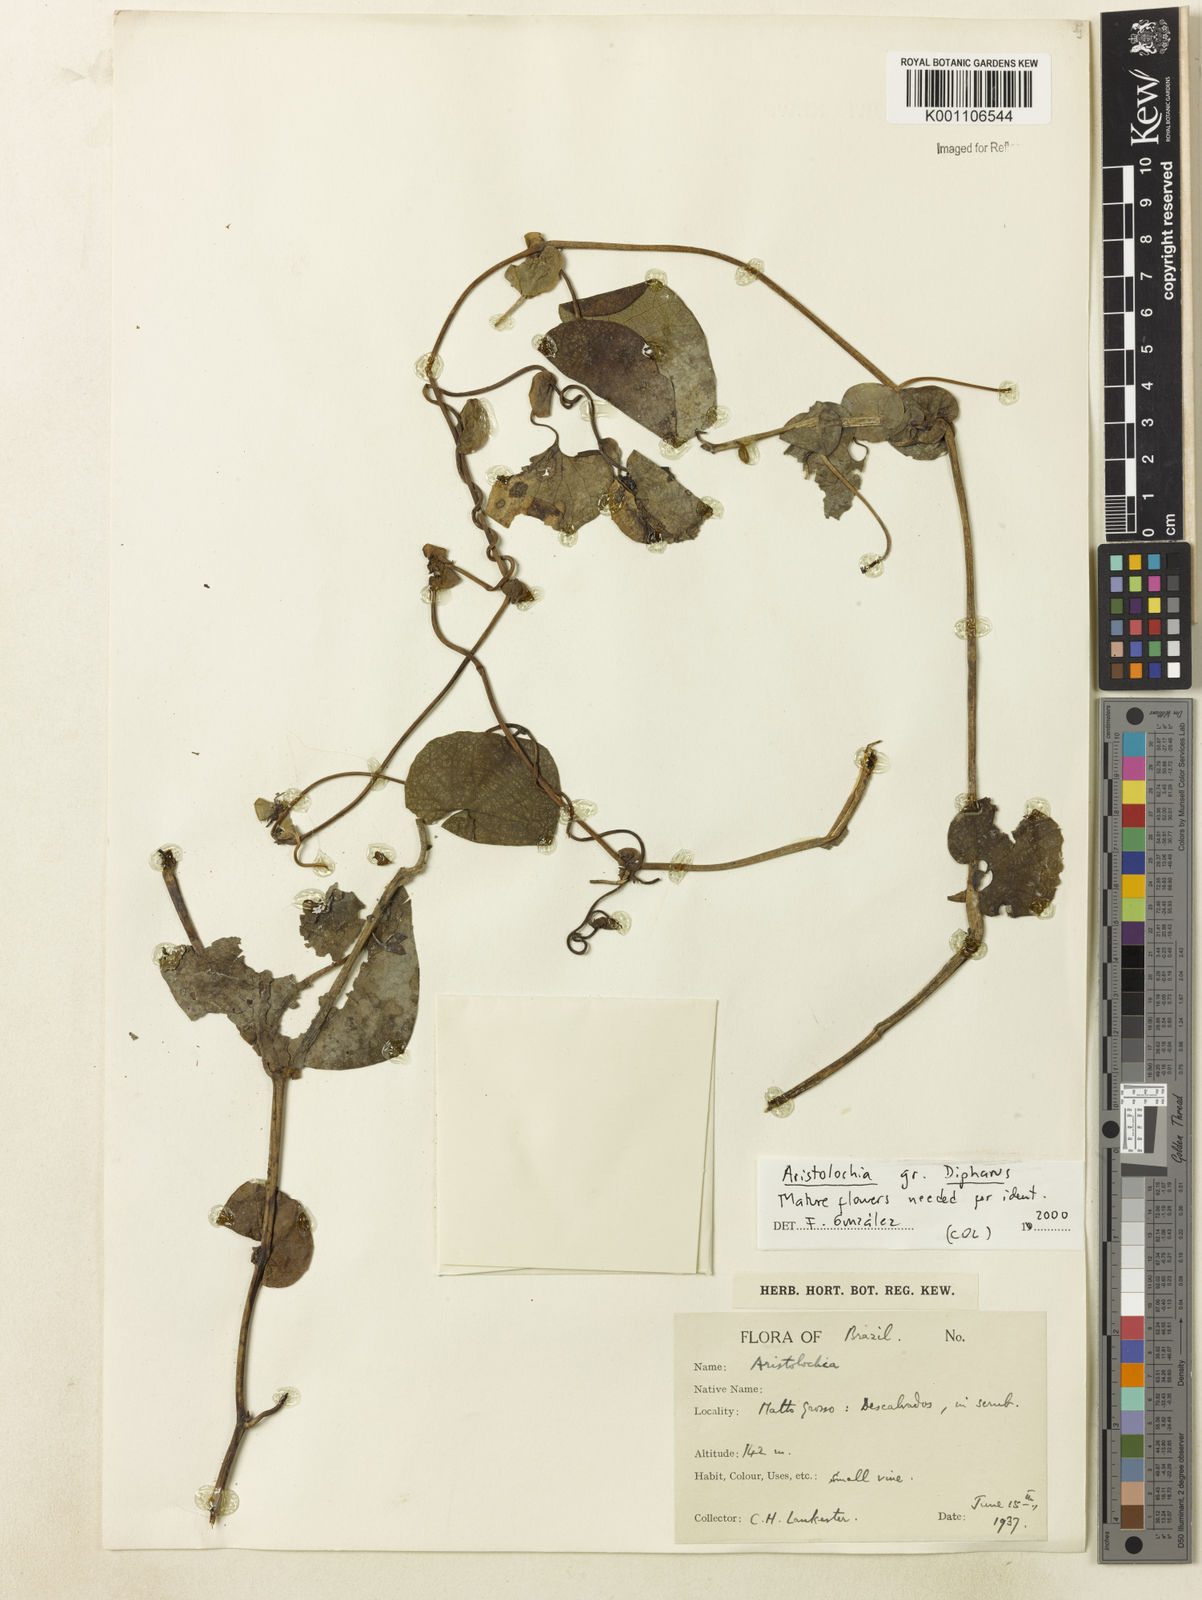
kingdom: Plantae
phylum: Tracheophyta
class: Magnoliopsida
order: Piperales
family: Aristolochiaceae
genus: Aristolochia
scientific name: Aristolochia
